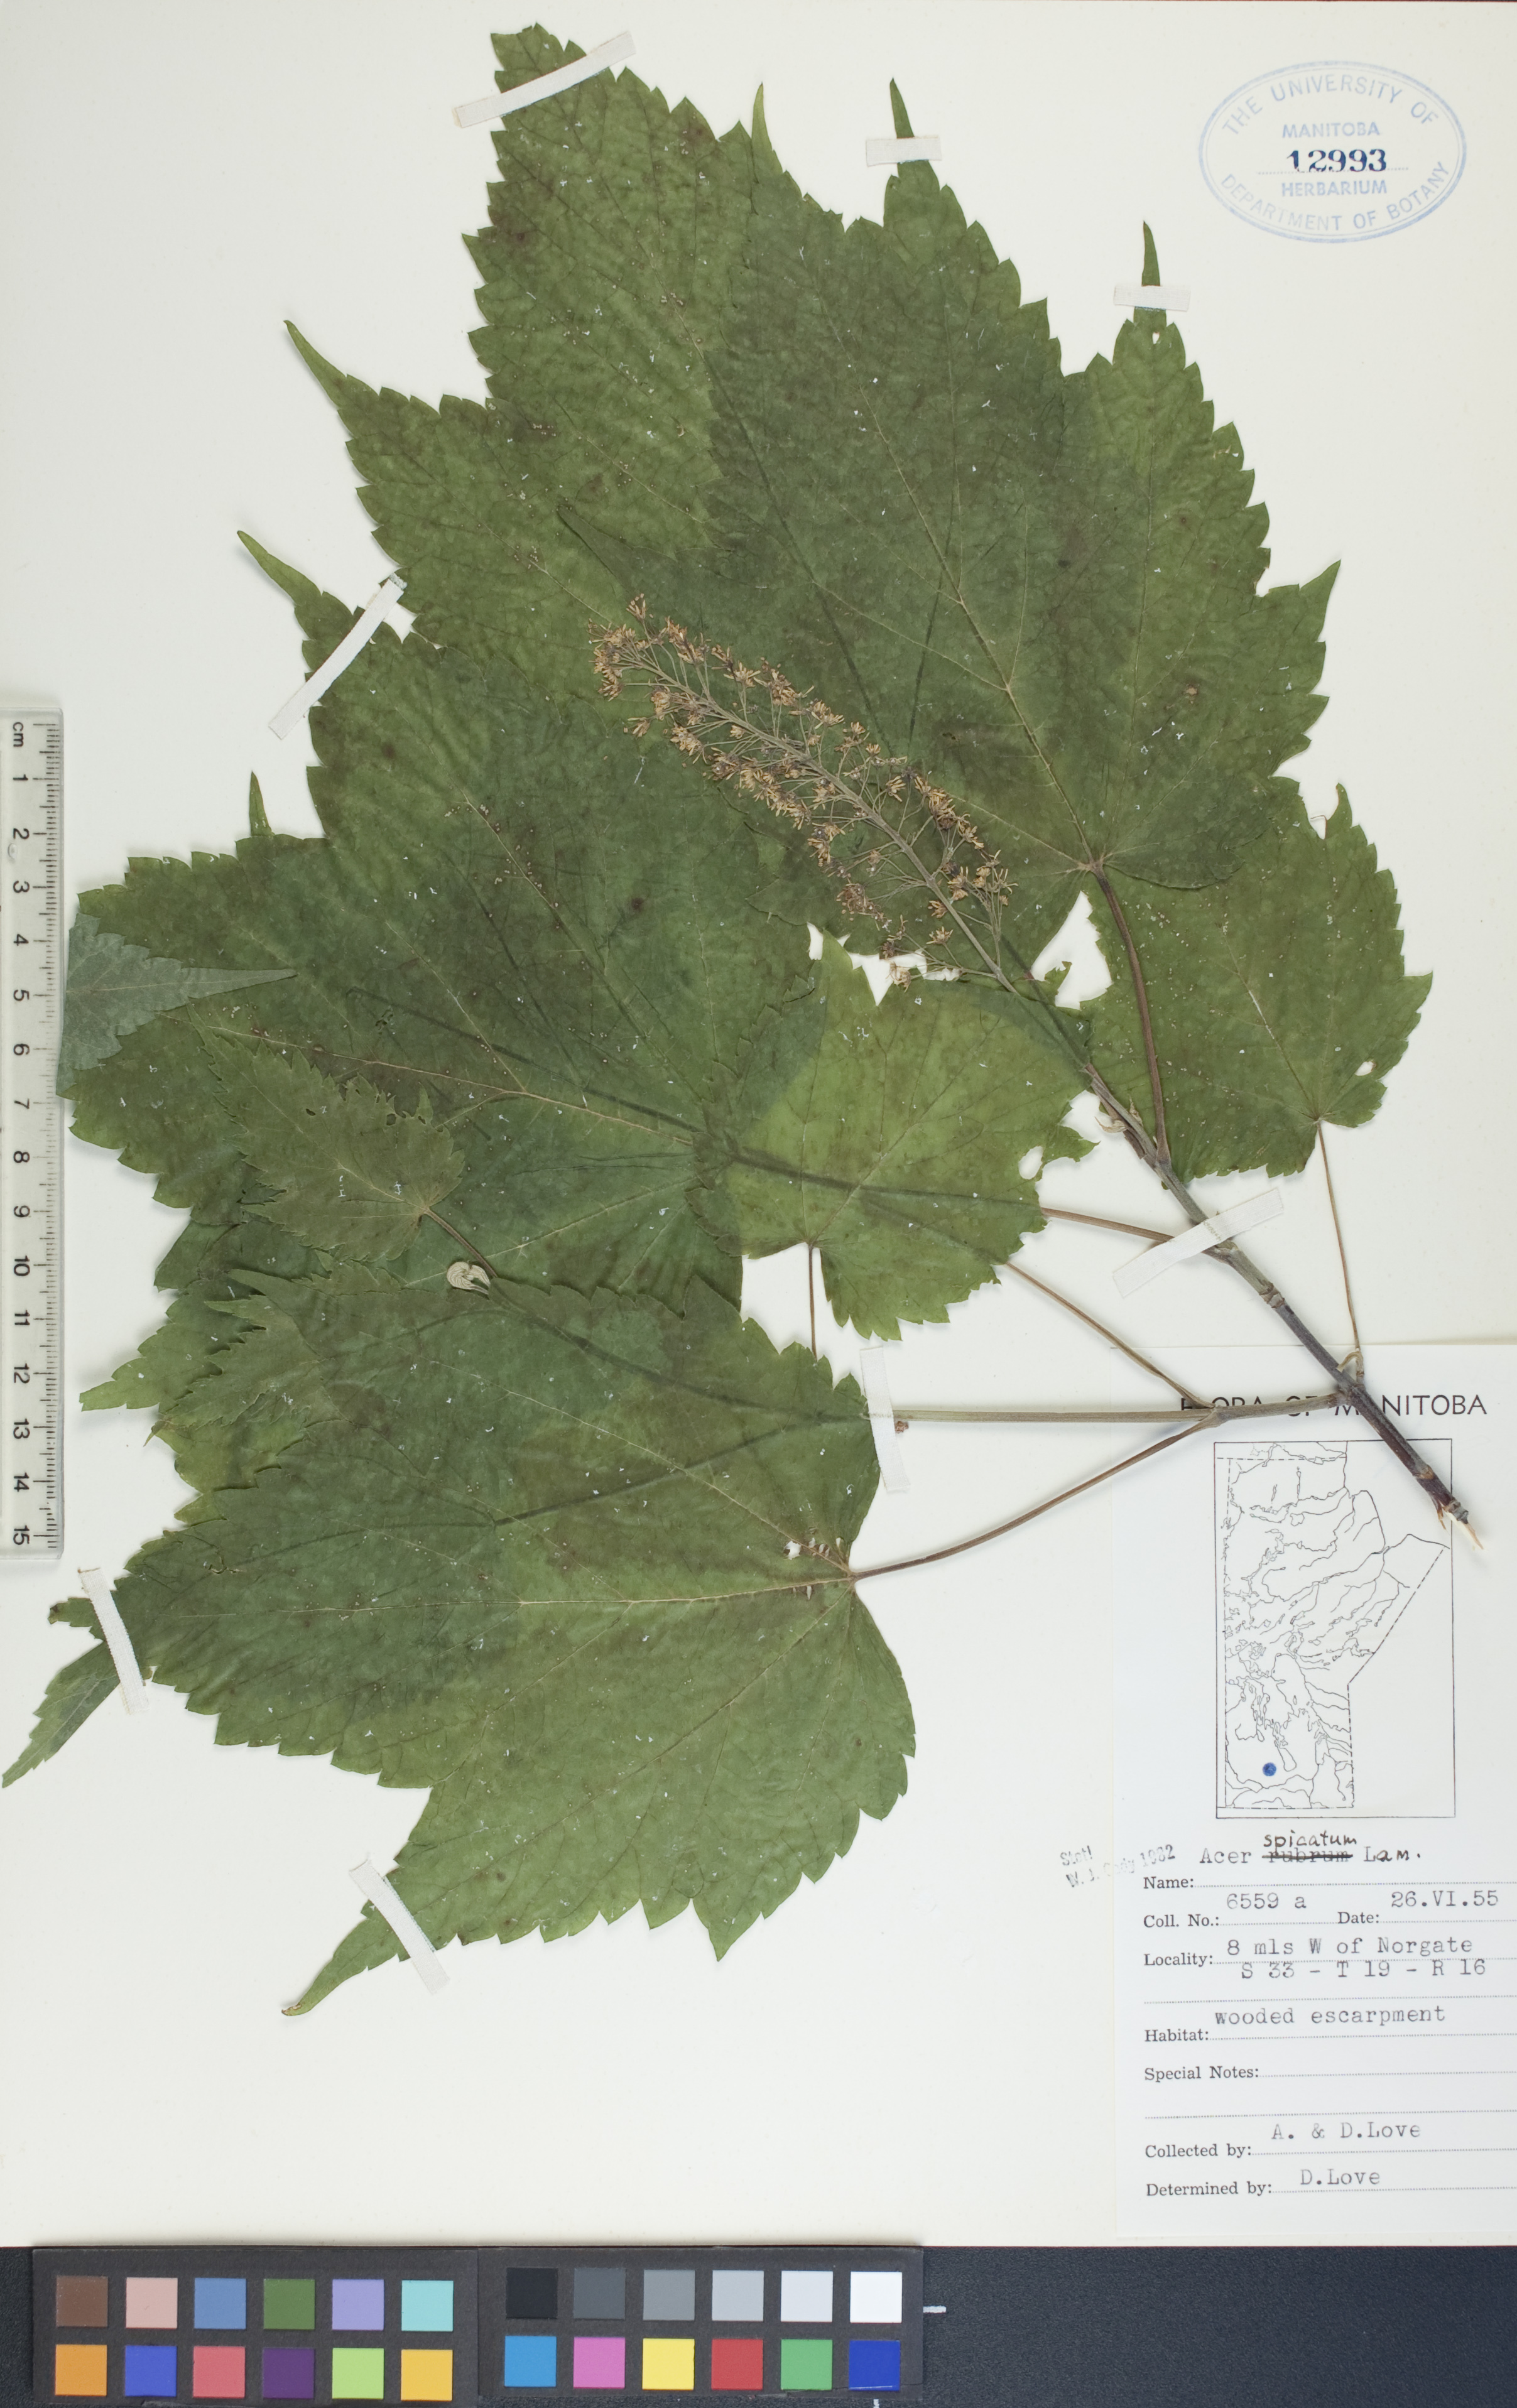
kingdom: Plantae
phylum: Tracheophyta
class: Magnoliopsida
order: Sapindales
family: Sapindaceae
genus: Acer
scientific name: Acer spicatum
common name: Mountain maple
